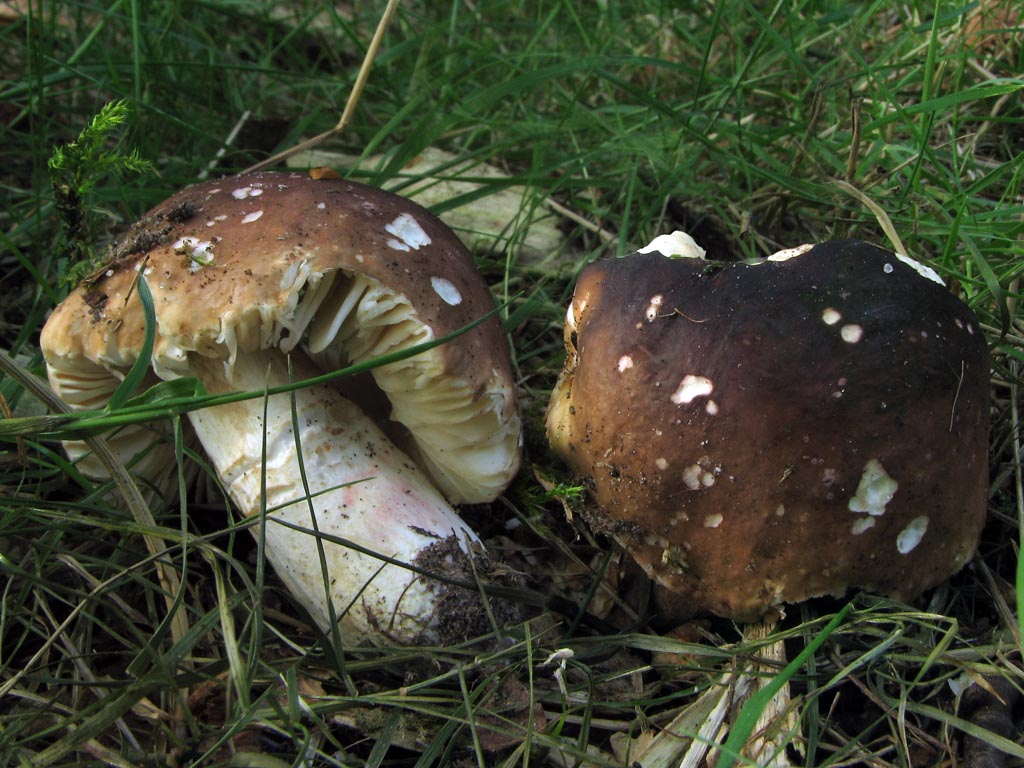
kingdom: Fungi
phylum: Basidiomycota
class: Agaricomycetes
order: Russulales
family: Russulaceae
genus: Russula
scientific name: Russula clavipes
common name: olivengrøn skørhat
